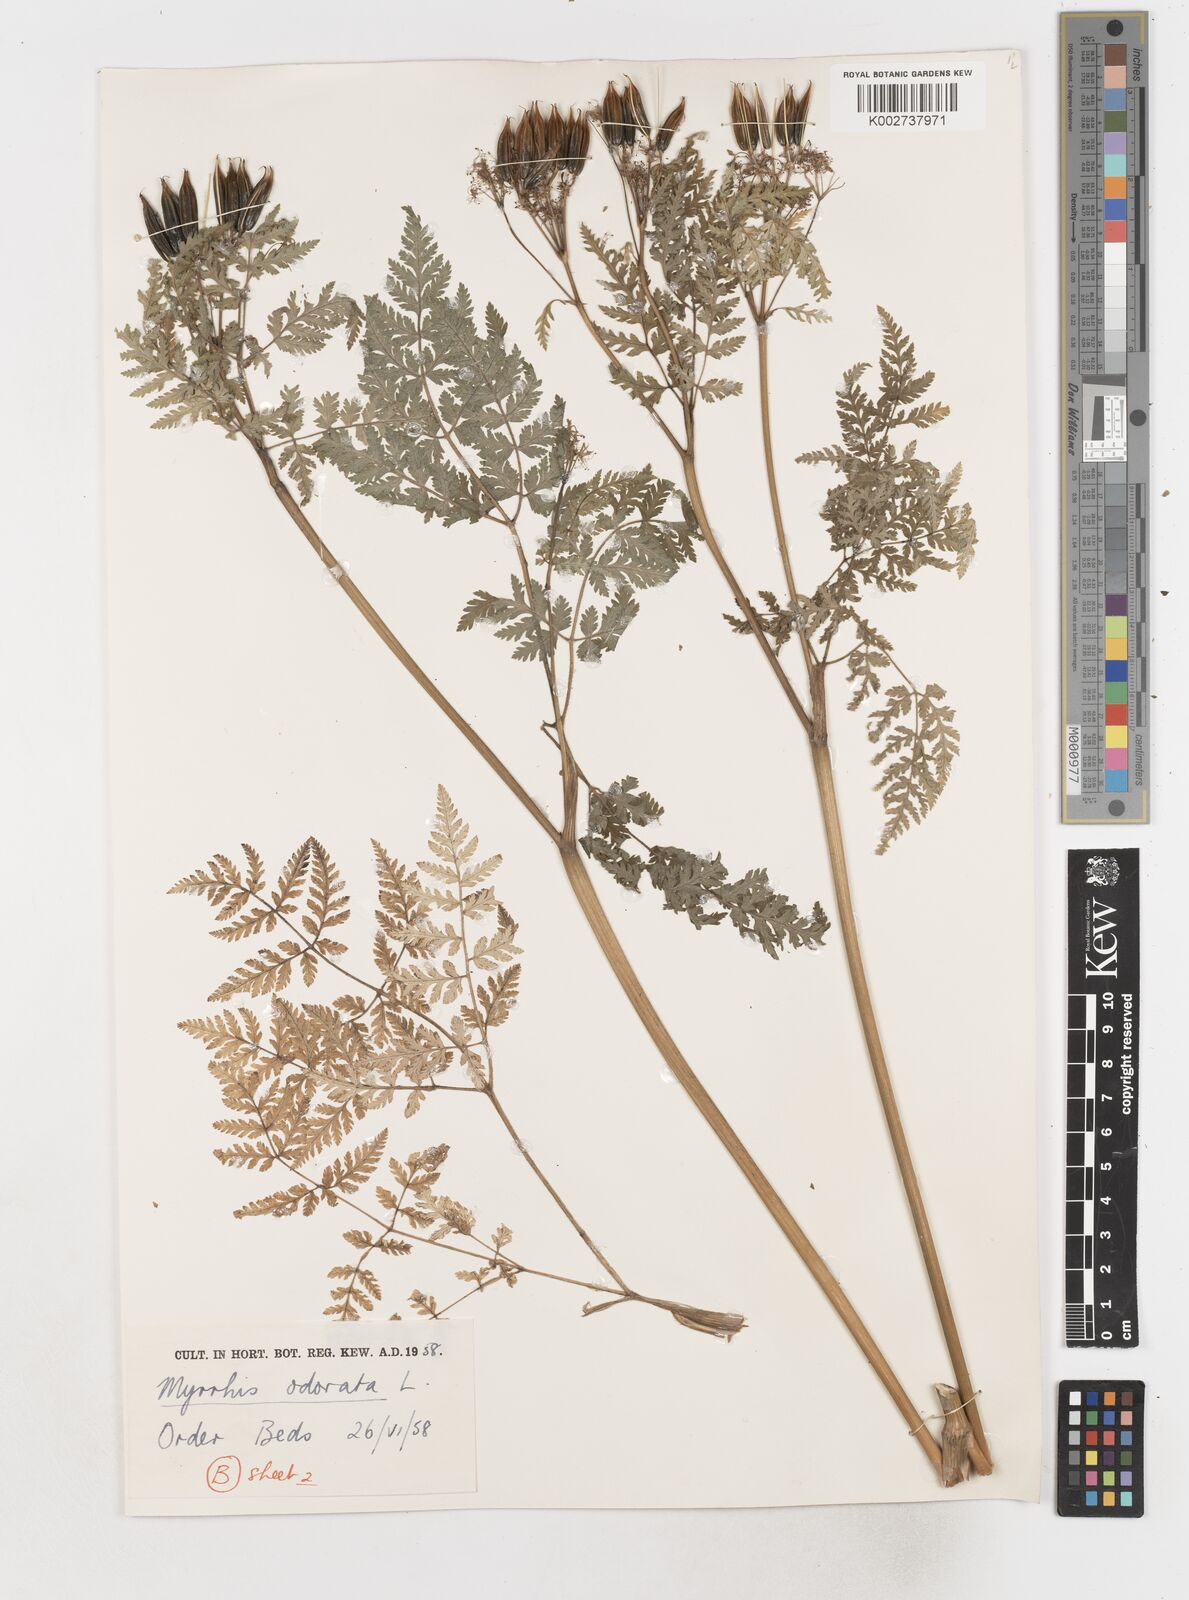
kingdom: Plantae
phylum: Tracheophyta
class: Magnoliopsida
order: Apiales
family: Apiaceae
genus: Myrrhis
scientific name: Myrrhis odorata
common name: Sweet cicely
